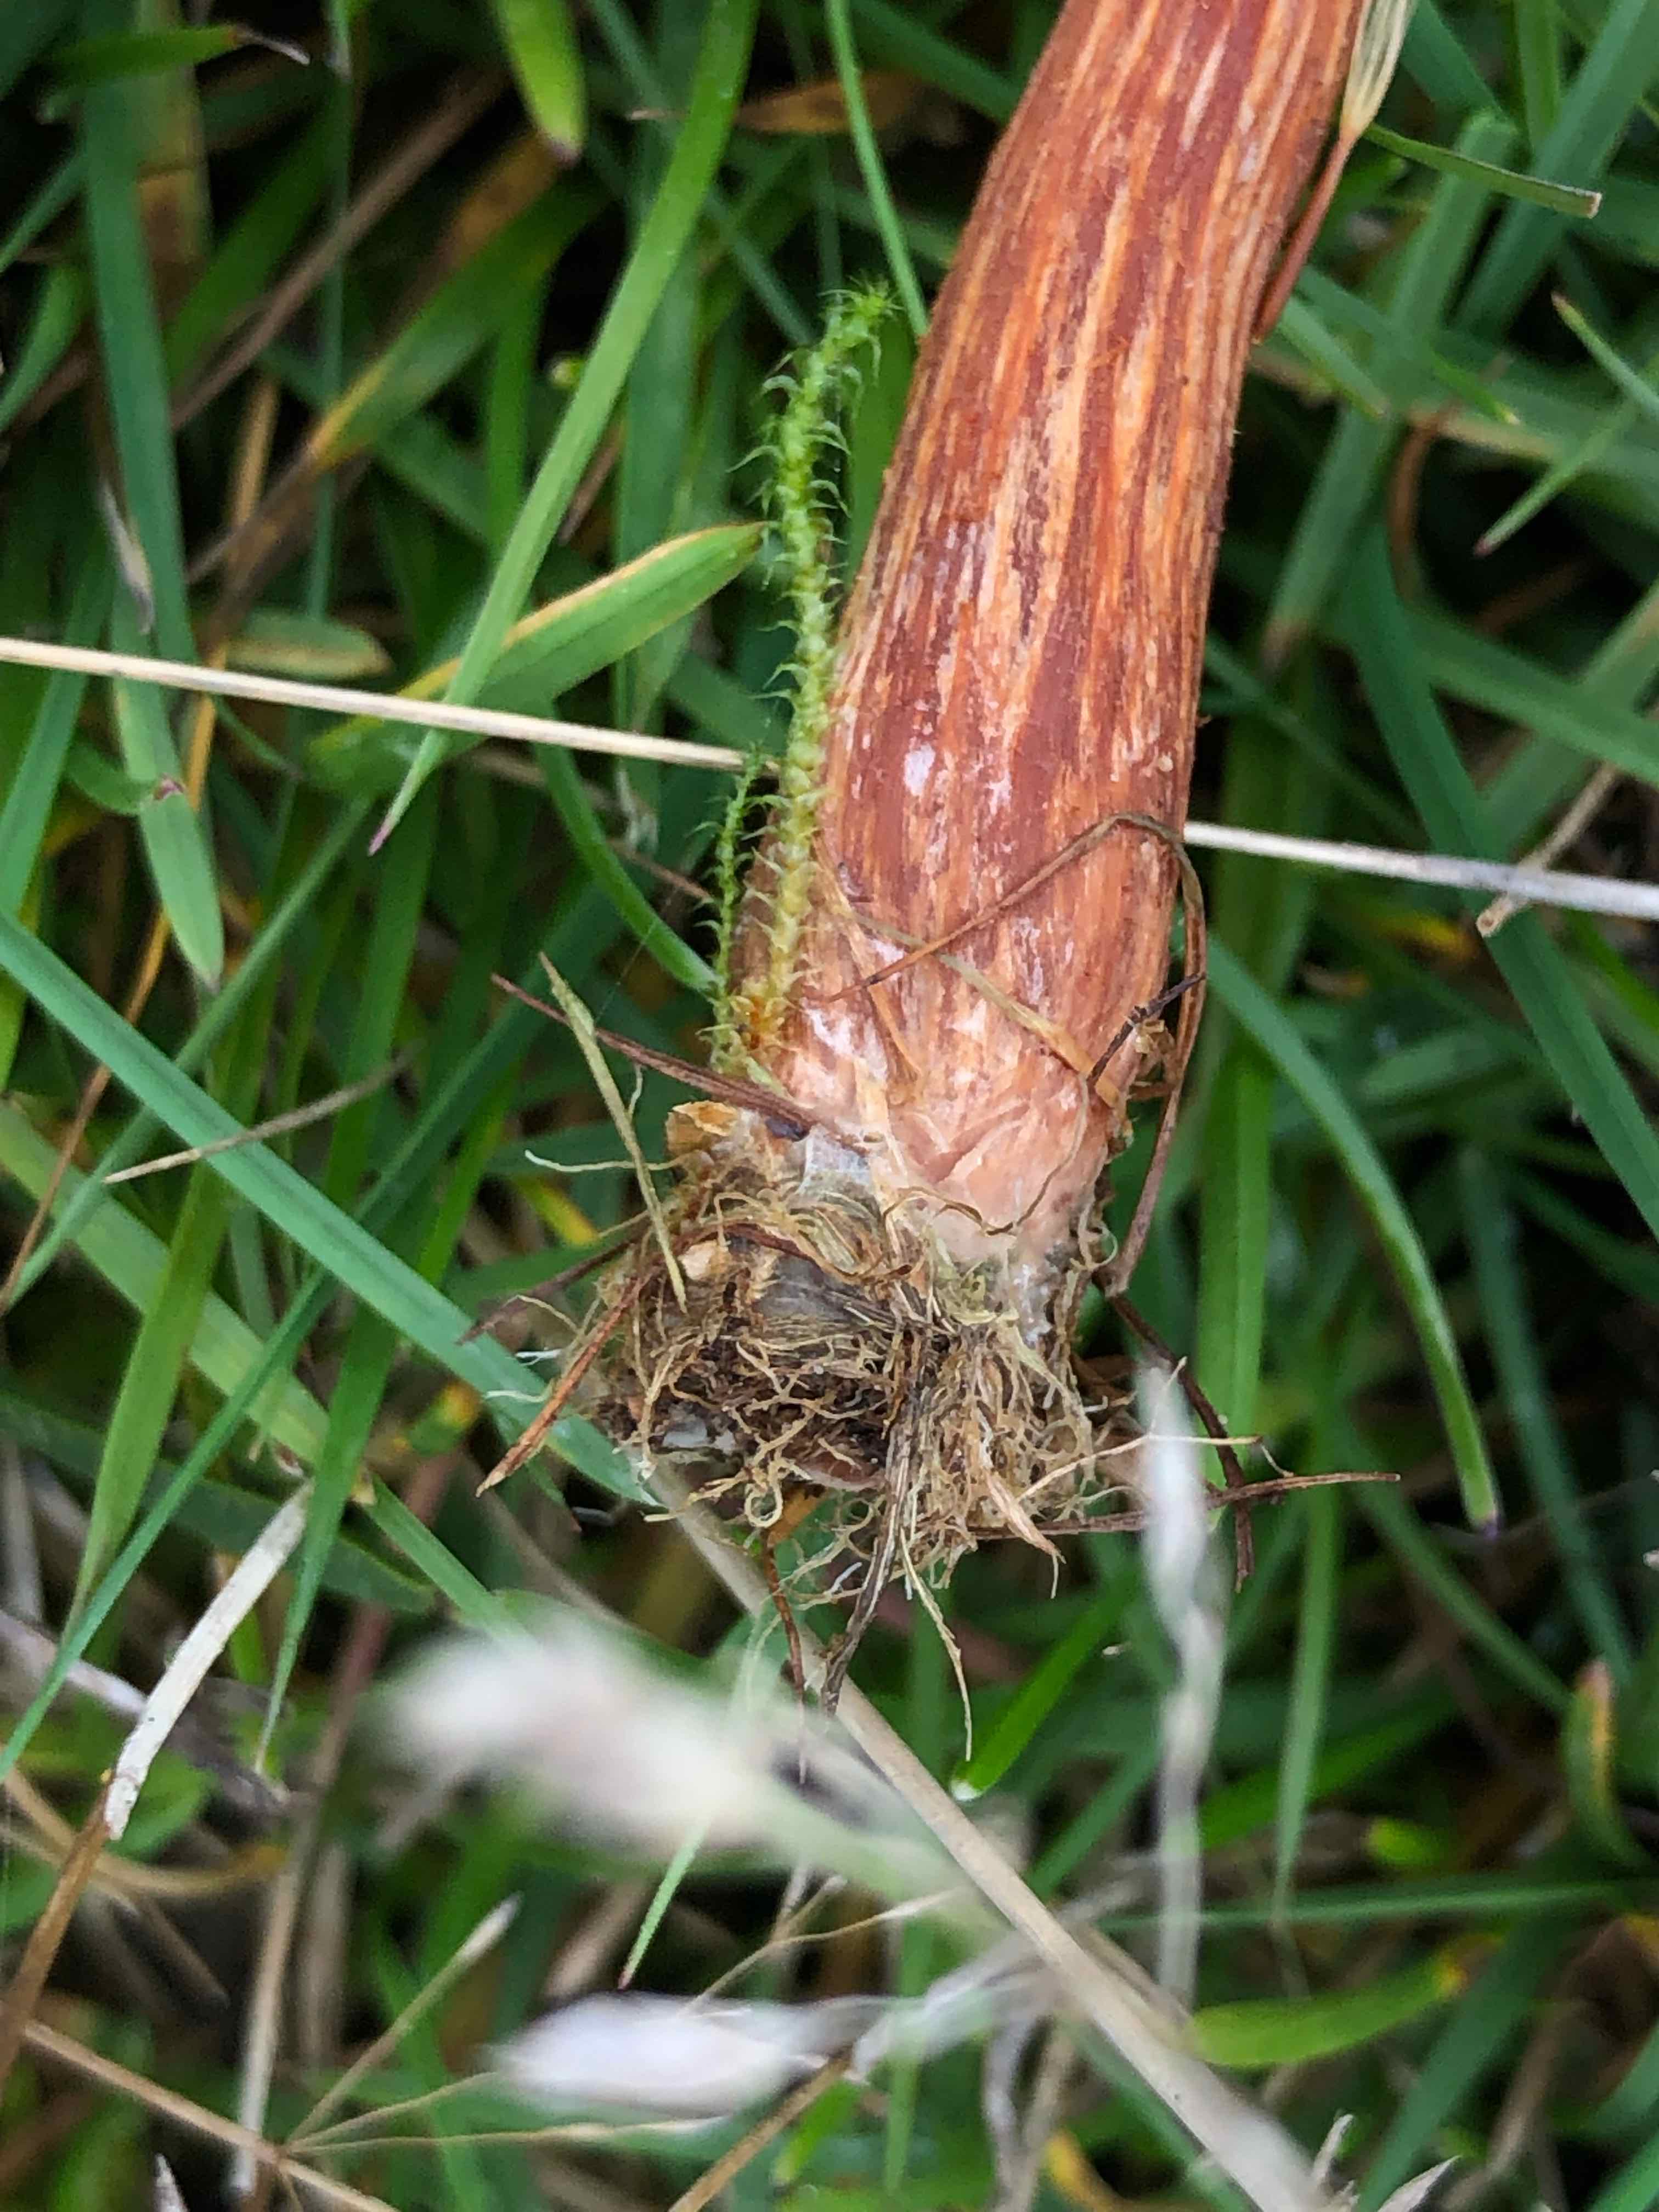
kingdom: Fungi
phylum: Basidiomycota
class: Agaricomycetes
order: Agaricales
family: Hydnangiaceae
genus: Laccaria
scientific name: Laccaria proxima
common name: stor ametysthat
